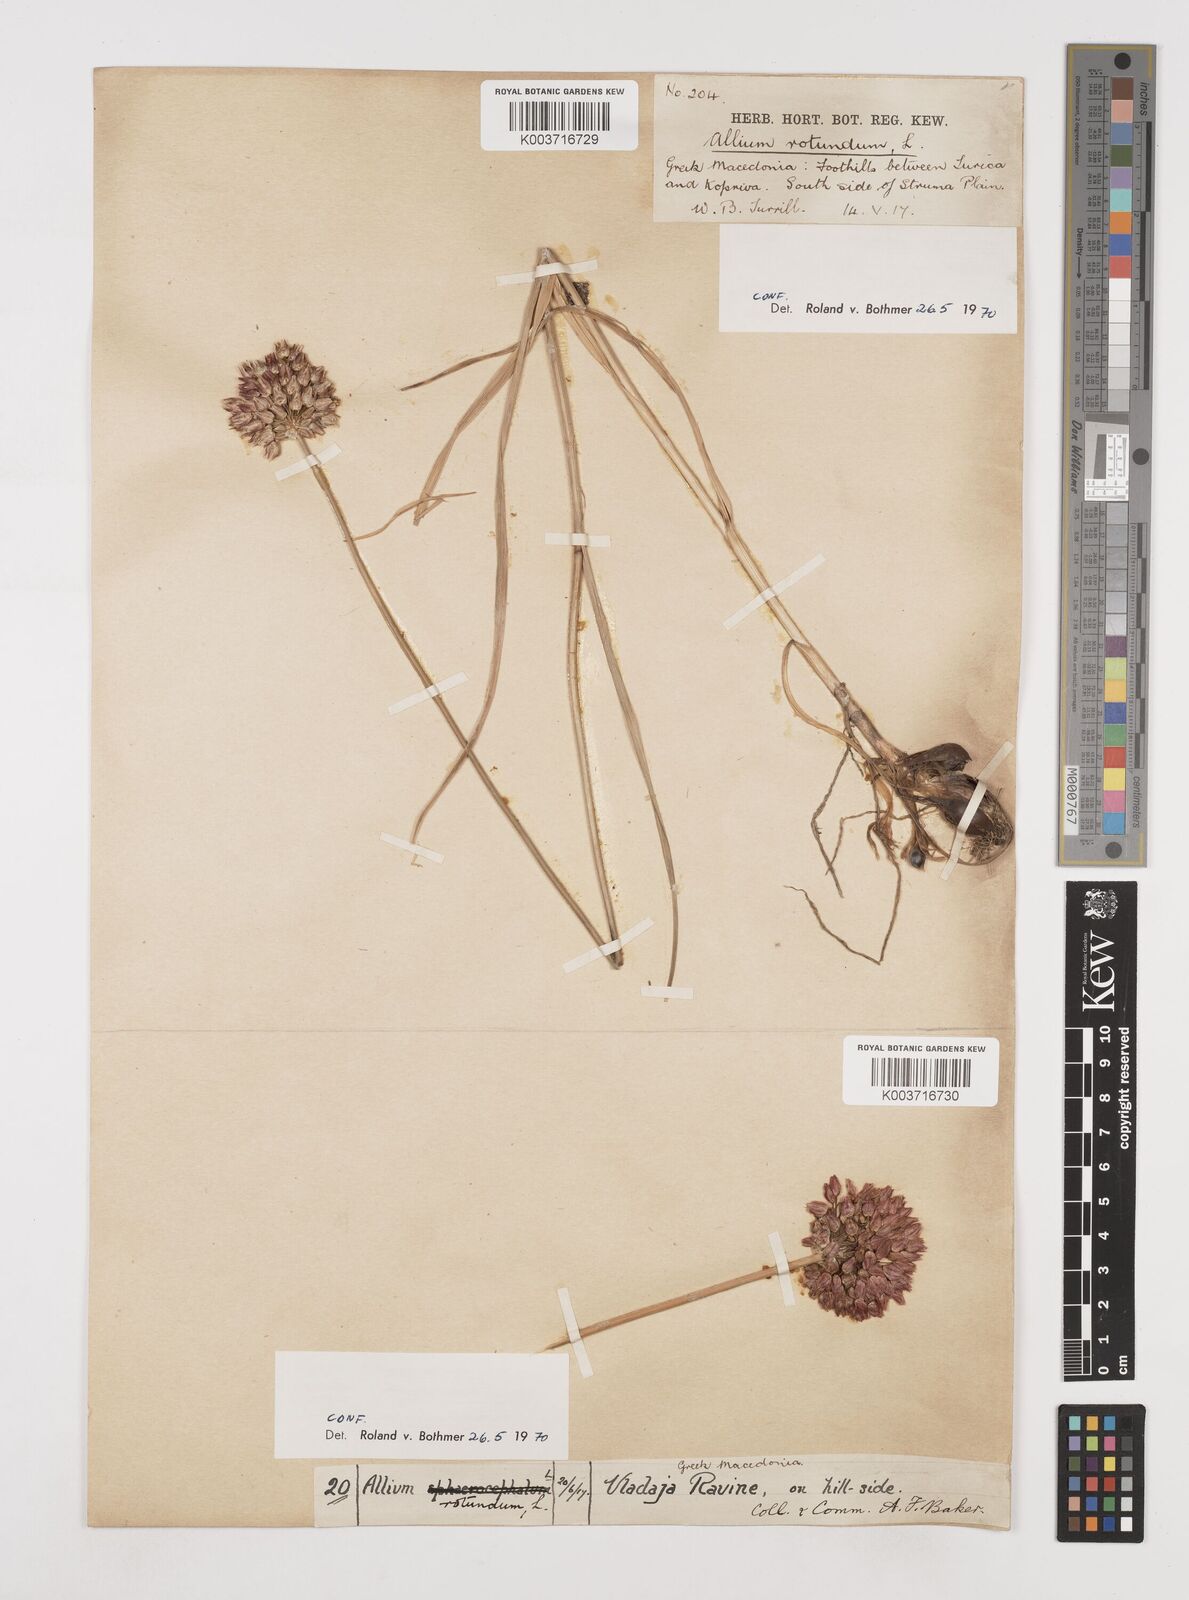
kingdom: Plantae
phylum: Tracheophyta
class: Liliopsida
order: Asparagales
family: Amaryllidaceae
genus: Allium
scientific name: Allium rotundum
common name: Sand leek
